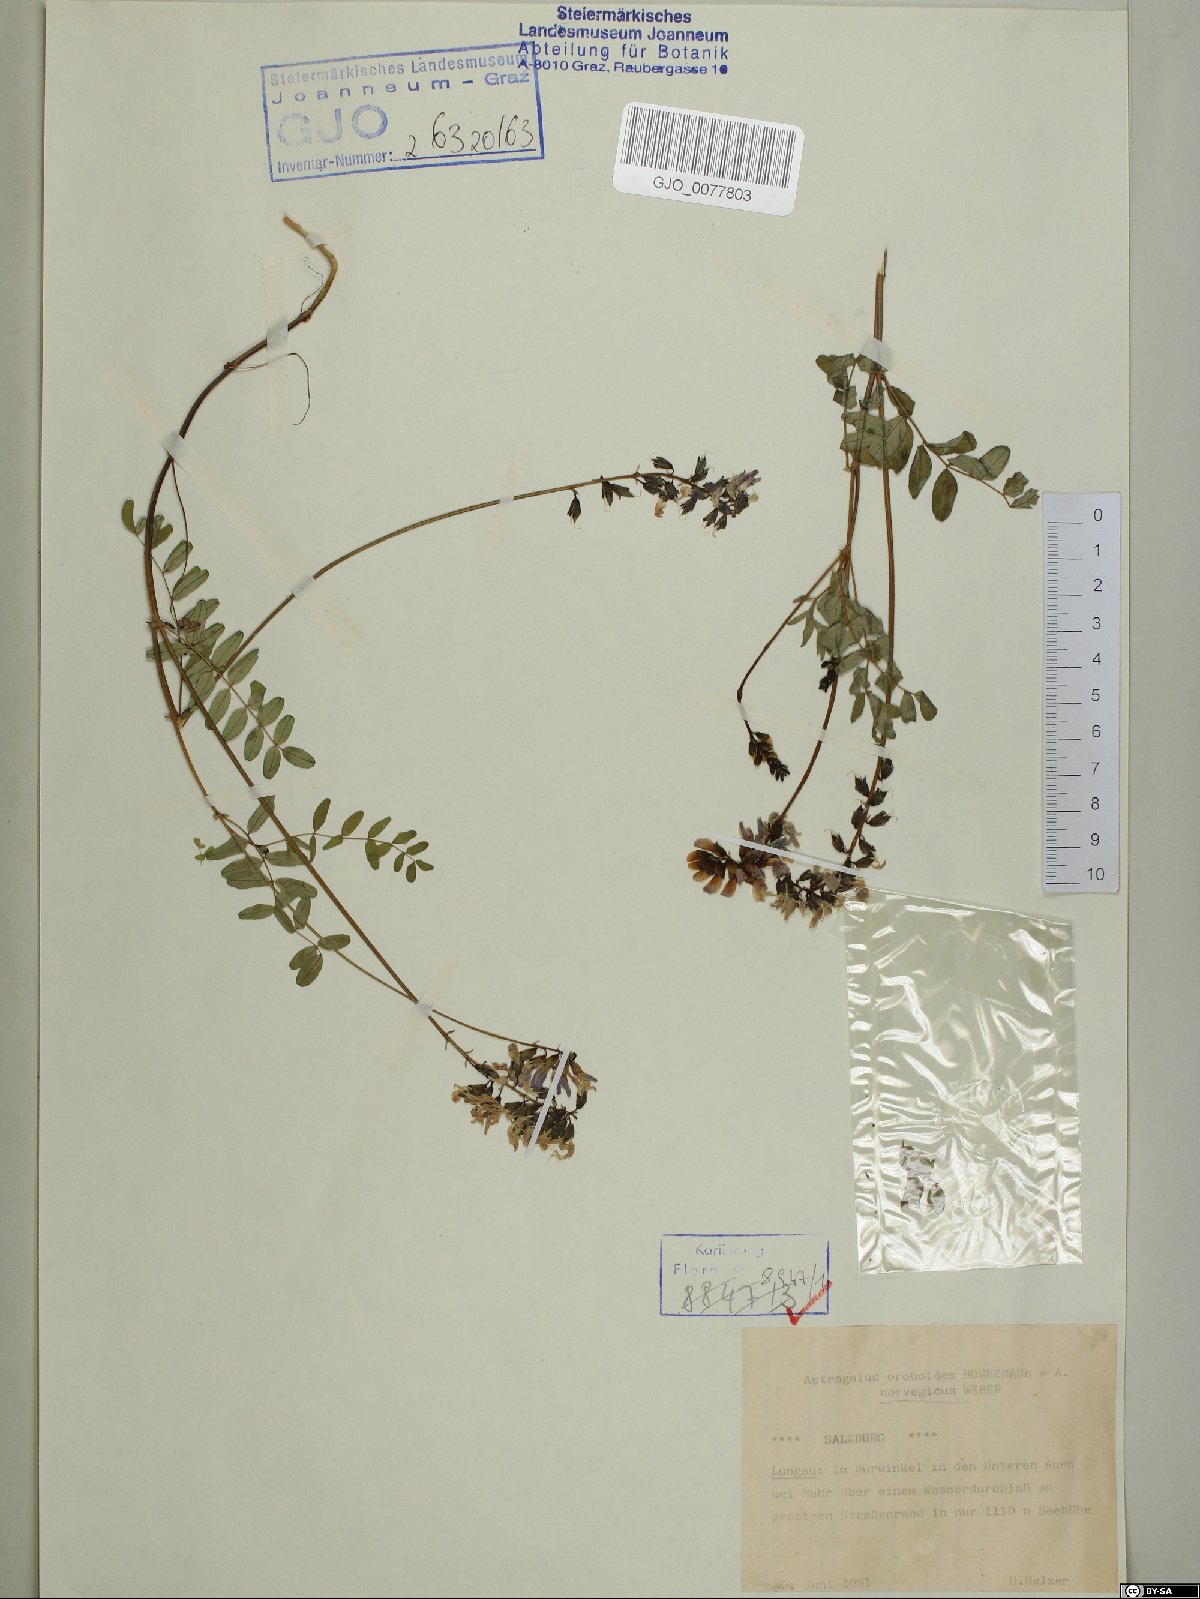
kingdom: Plantae
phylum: Tracheophyta
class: Magnoliopsida
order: Fabales
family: Fabaceae
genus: Astragalus
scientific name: Astragalus norvegicus
